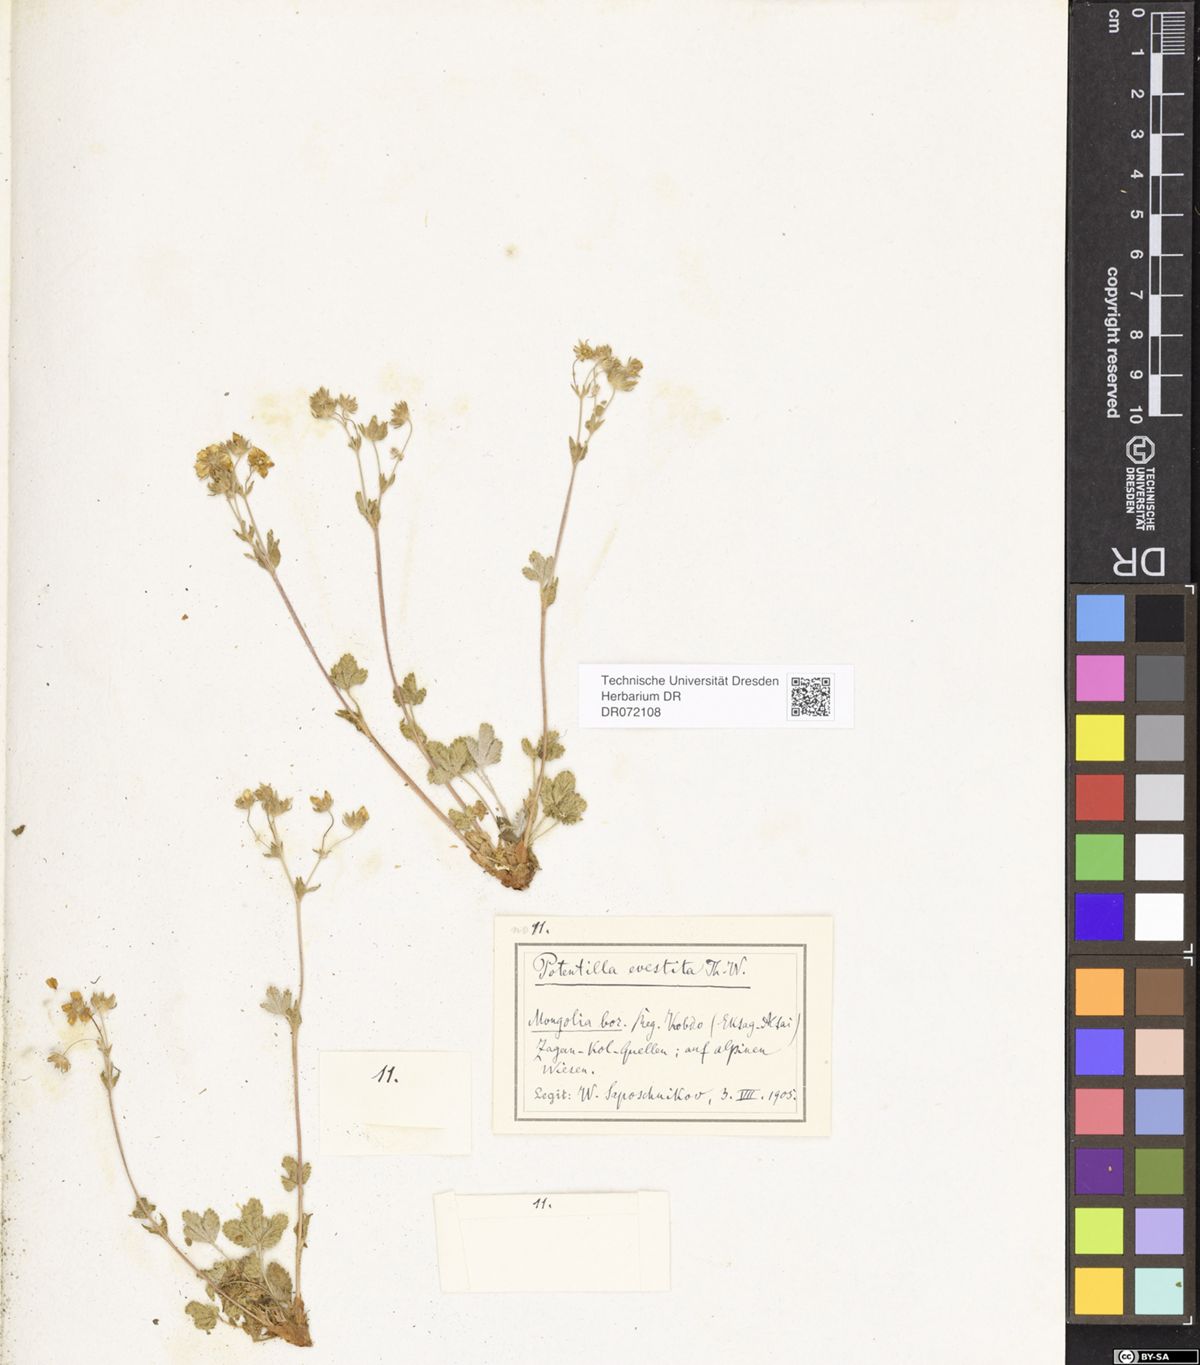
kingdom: Plantae
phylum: Tracheophyta
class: Magnoliopsida
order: Rosales
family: Rosaceae
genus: Potentilla
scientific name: Potentilla evestita
